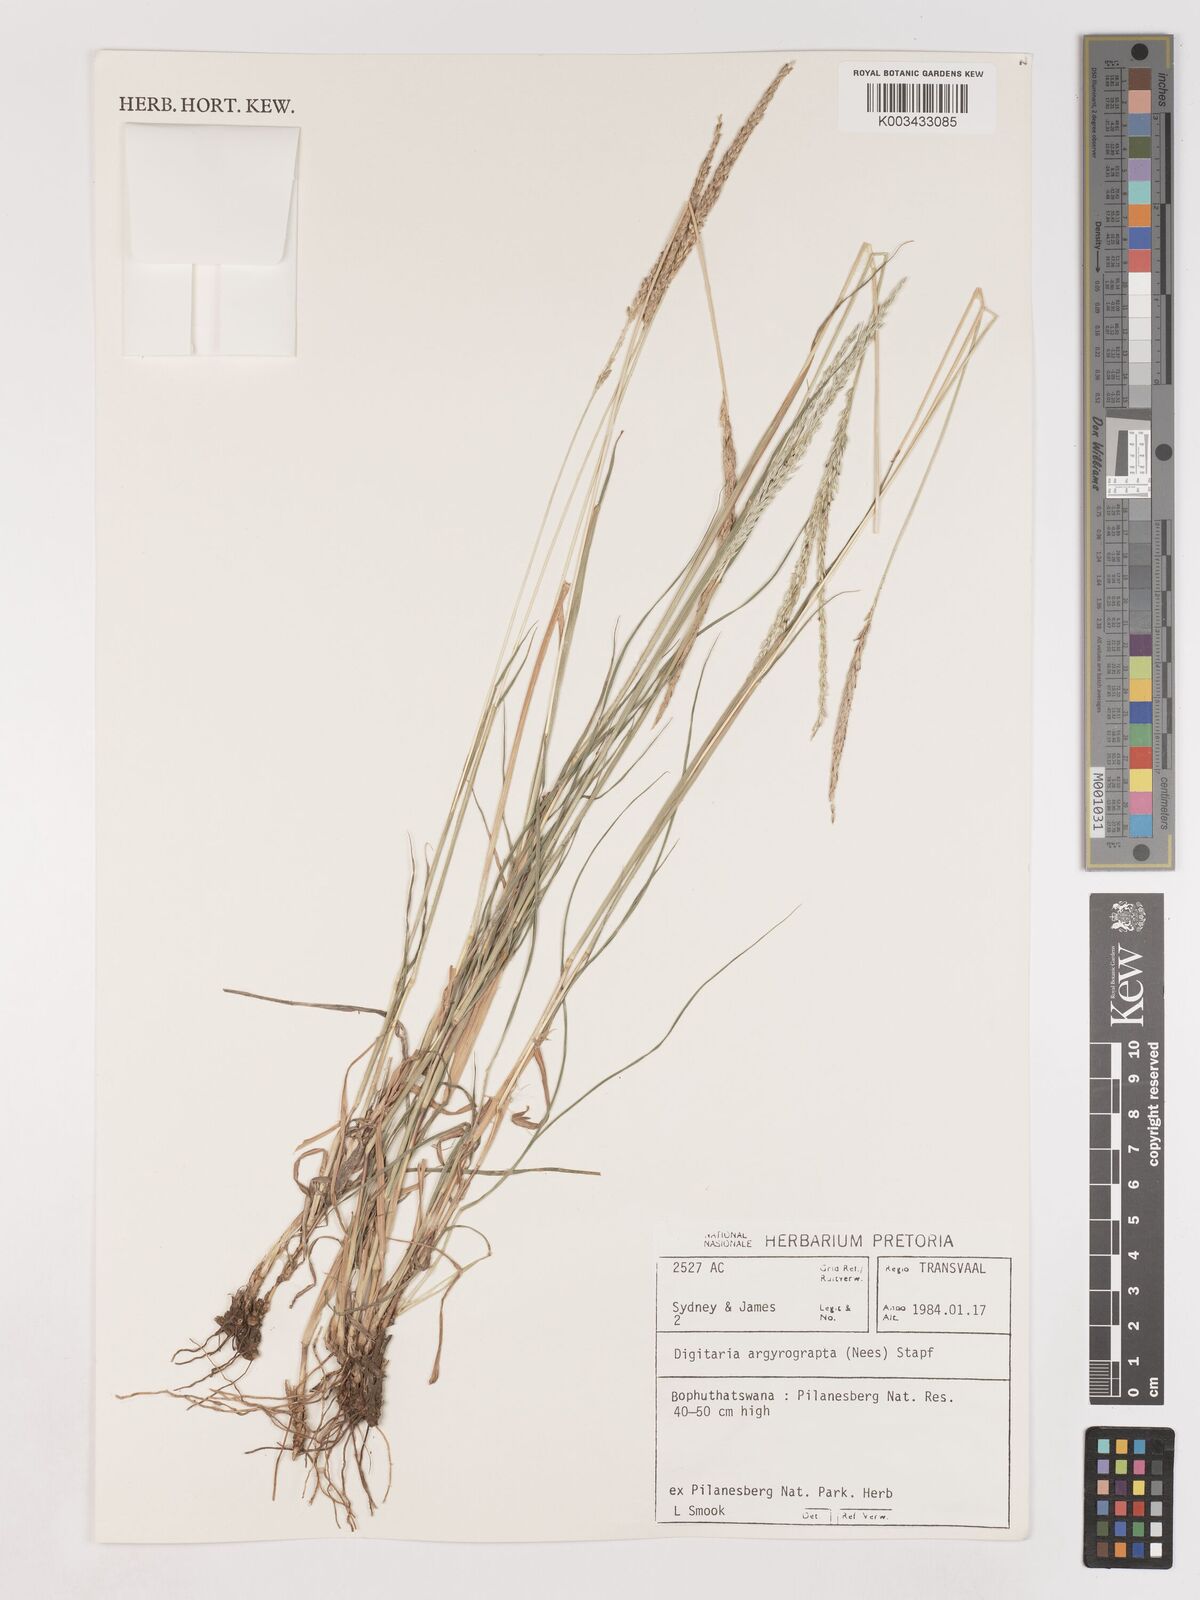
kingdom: Plantae
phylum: Tracheophyta
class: Liliopsida
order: Poales
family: Poaceae
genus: Digitaria
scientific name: Digitaria argyrograpta
